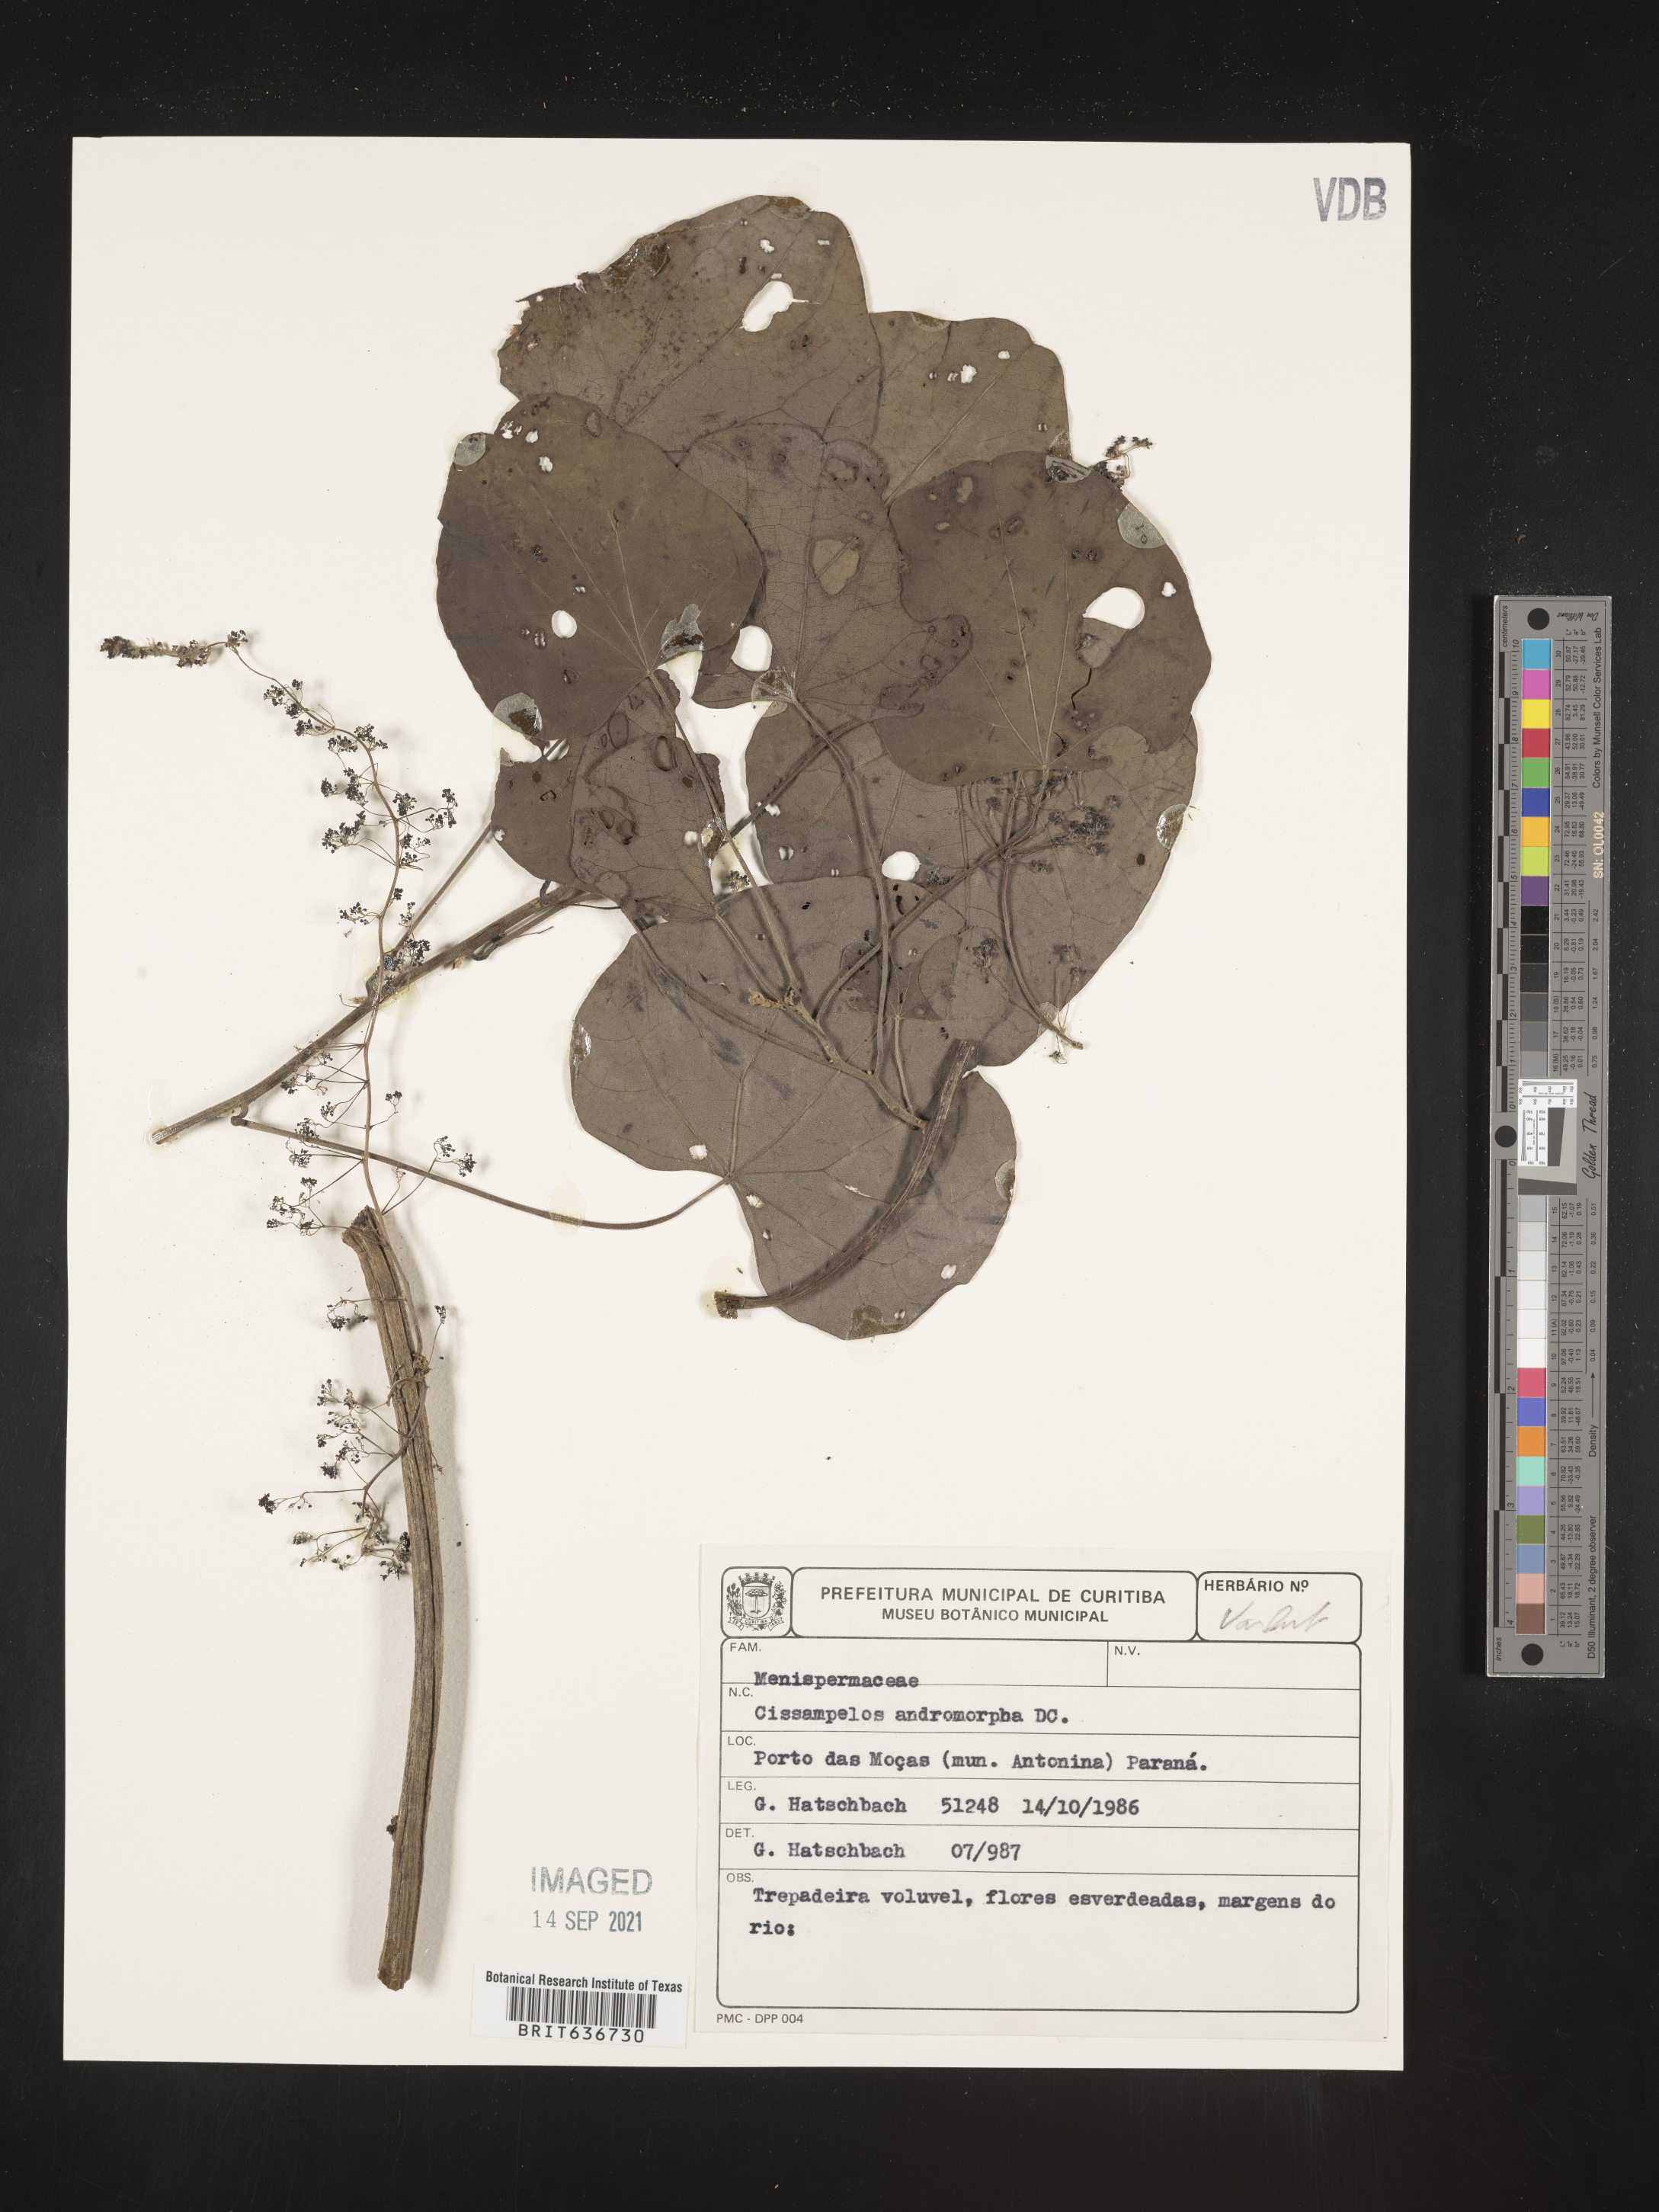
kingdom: Plantae
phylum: Tracheophyta
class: Magnoliopsida
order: Ranunculales
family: Menispermaceae
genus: Cissampelos
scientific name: Cissampelos
